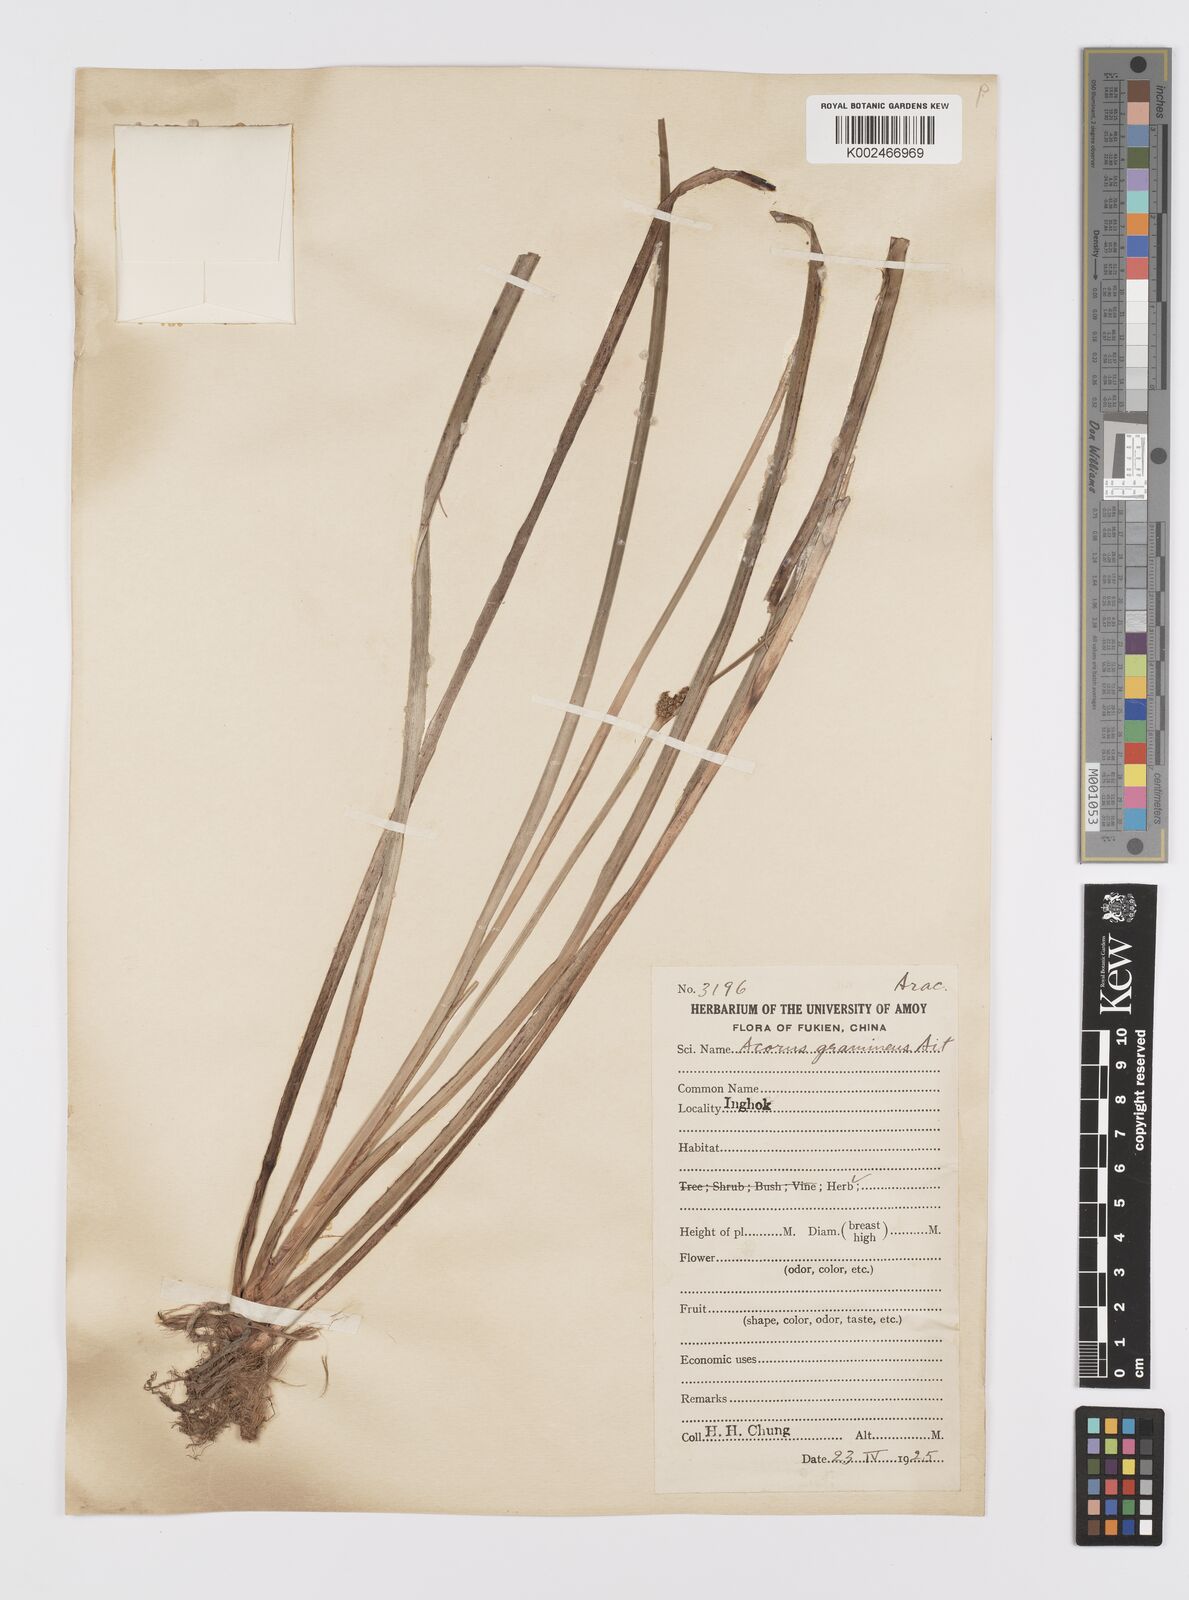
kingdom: Plantae
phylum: Tracheophyta
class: Liliopsida
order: Acorales
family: Acoraceae
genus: Acorus
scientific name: Acorus gramineus
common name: Slender sweet-flag
